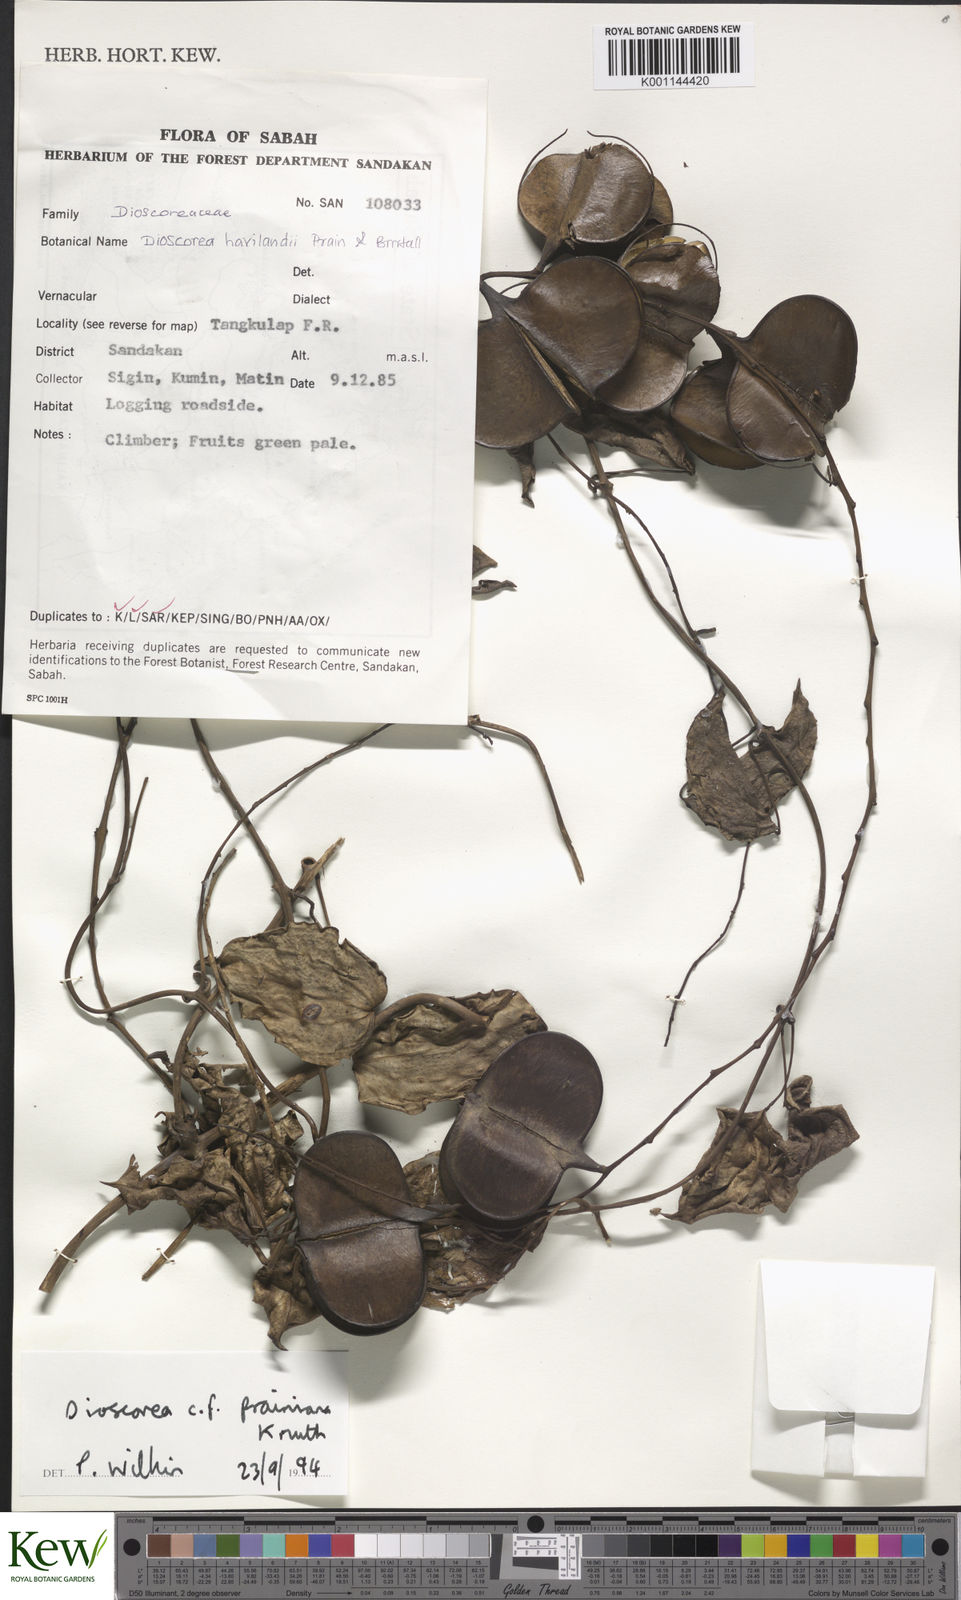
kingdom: Plantae
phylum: Tracheophyta
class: Liliopsida
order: Dioscoreales
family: Dioscoreaceae
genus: Dioscorea
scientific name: Dioscorea prainiana
